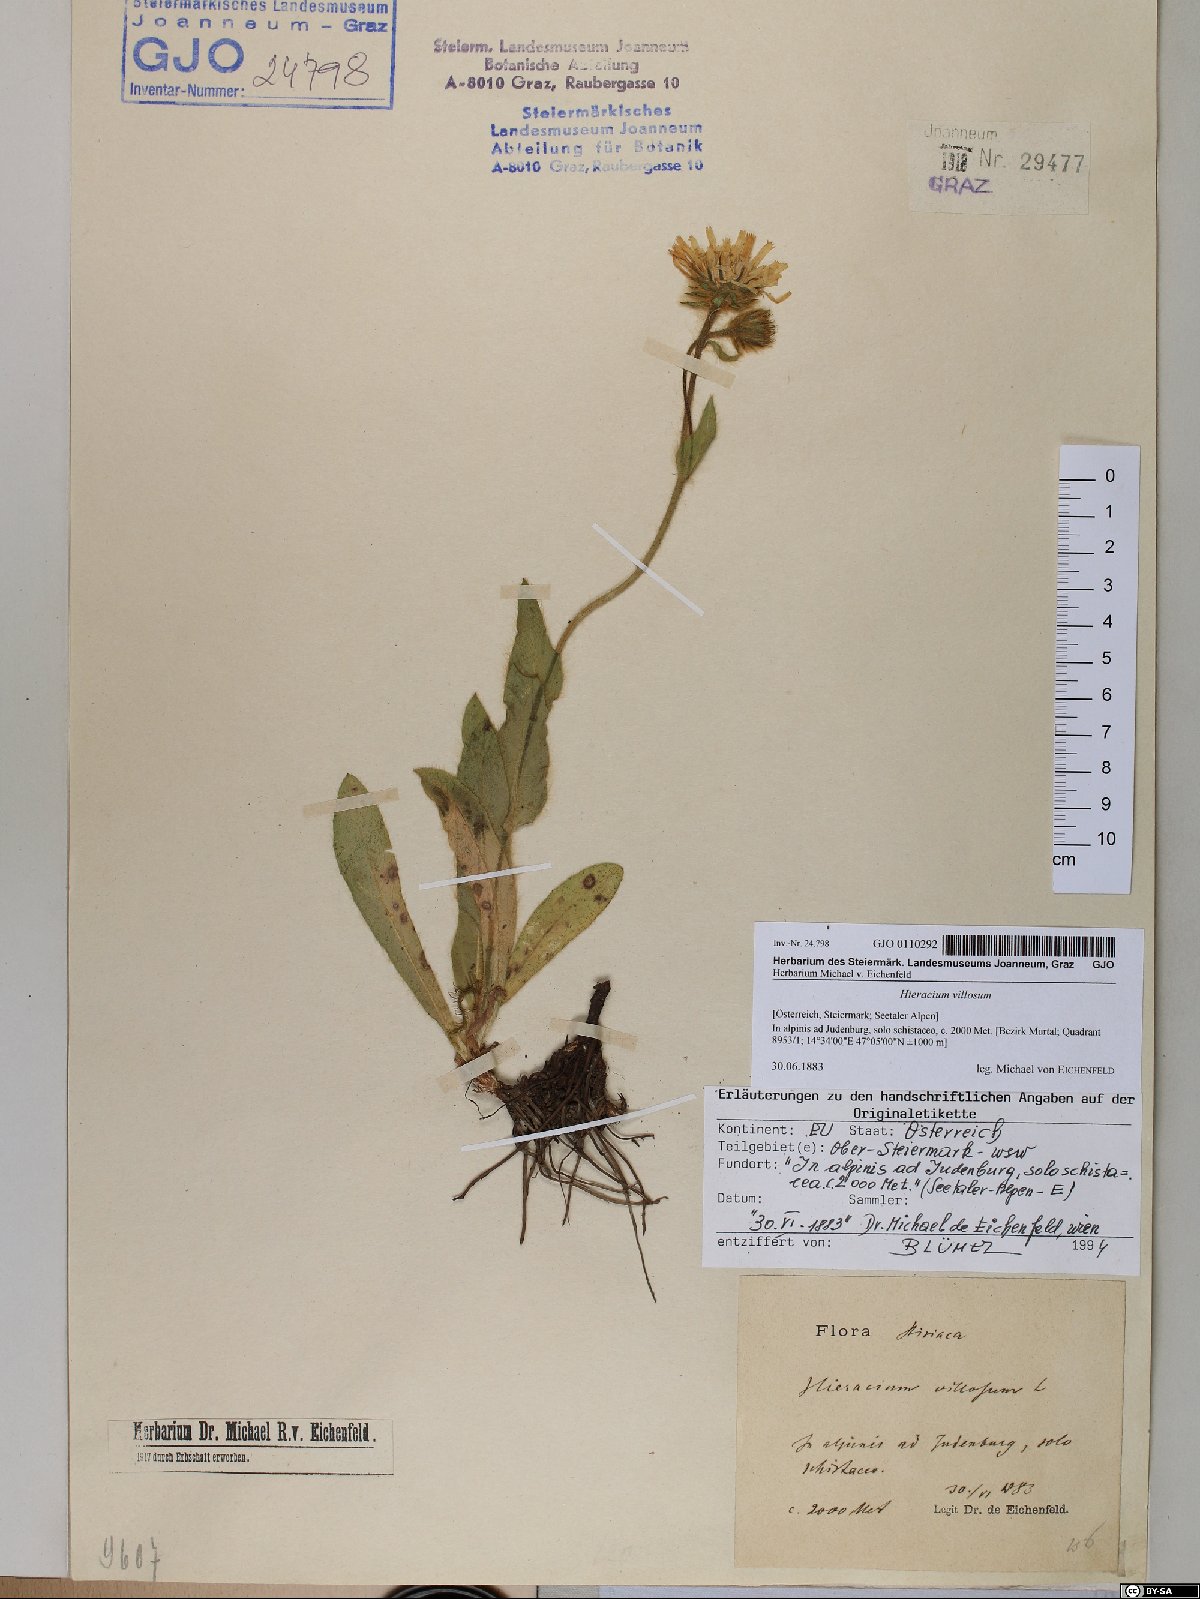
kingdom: Plantae
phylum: Tracheophyta
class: Magnoliopsida
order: Asterales
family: Asteraceae
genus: Hieracium
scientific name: Hieracium villosum
